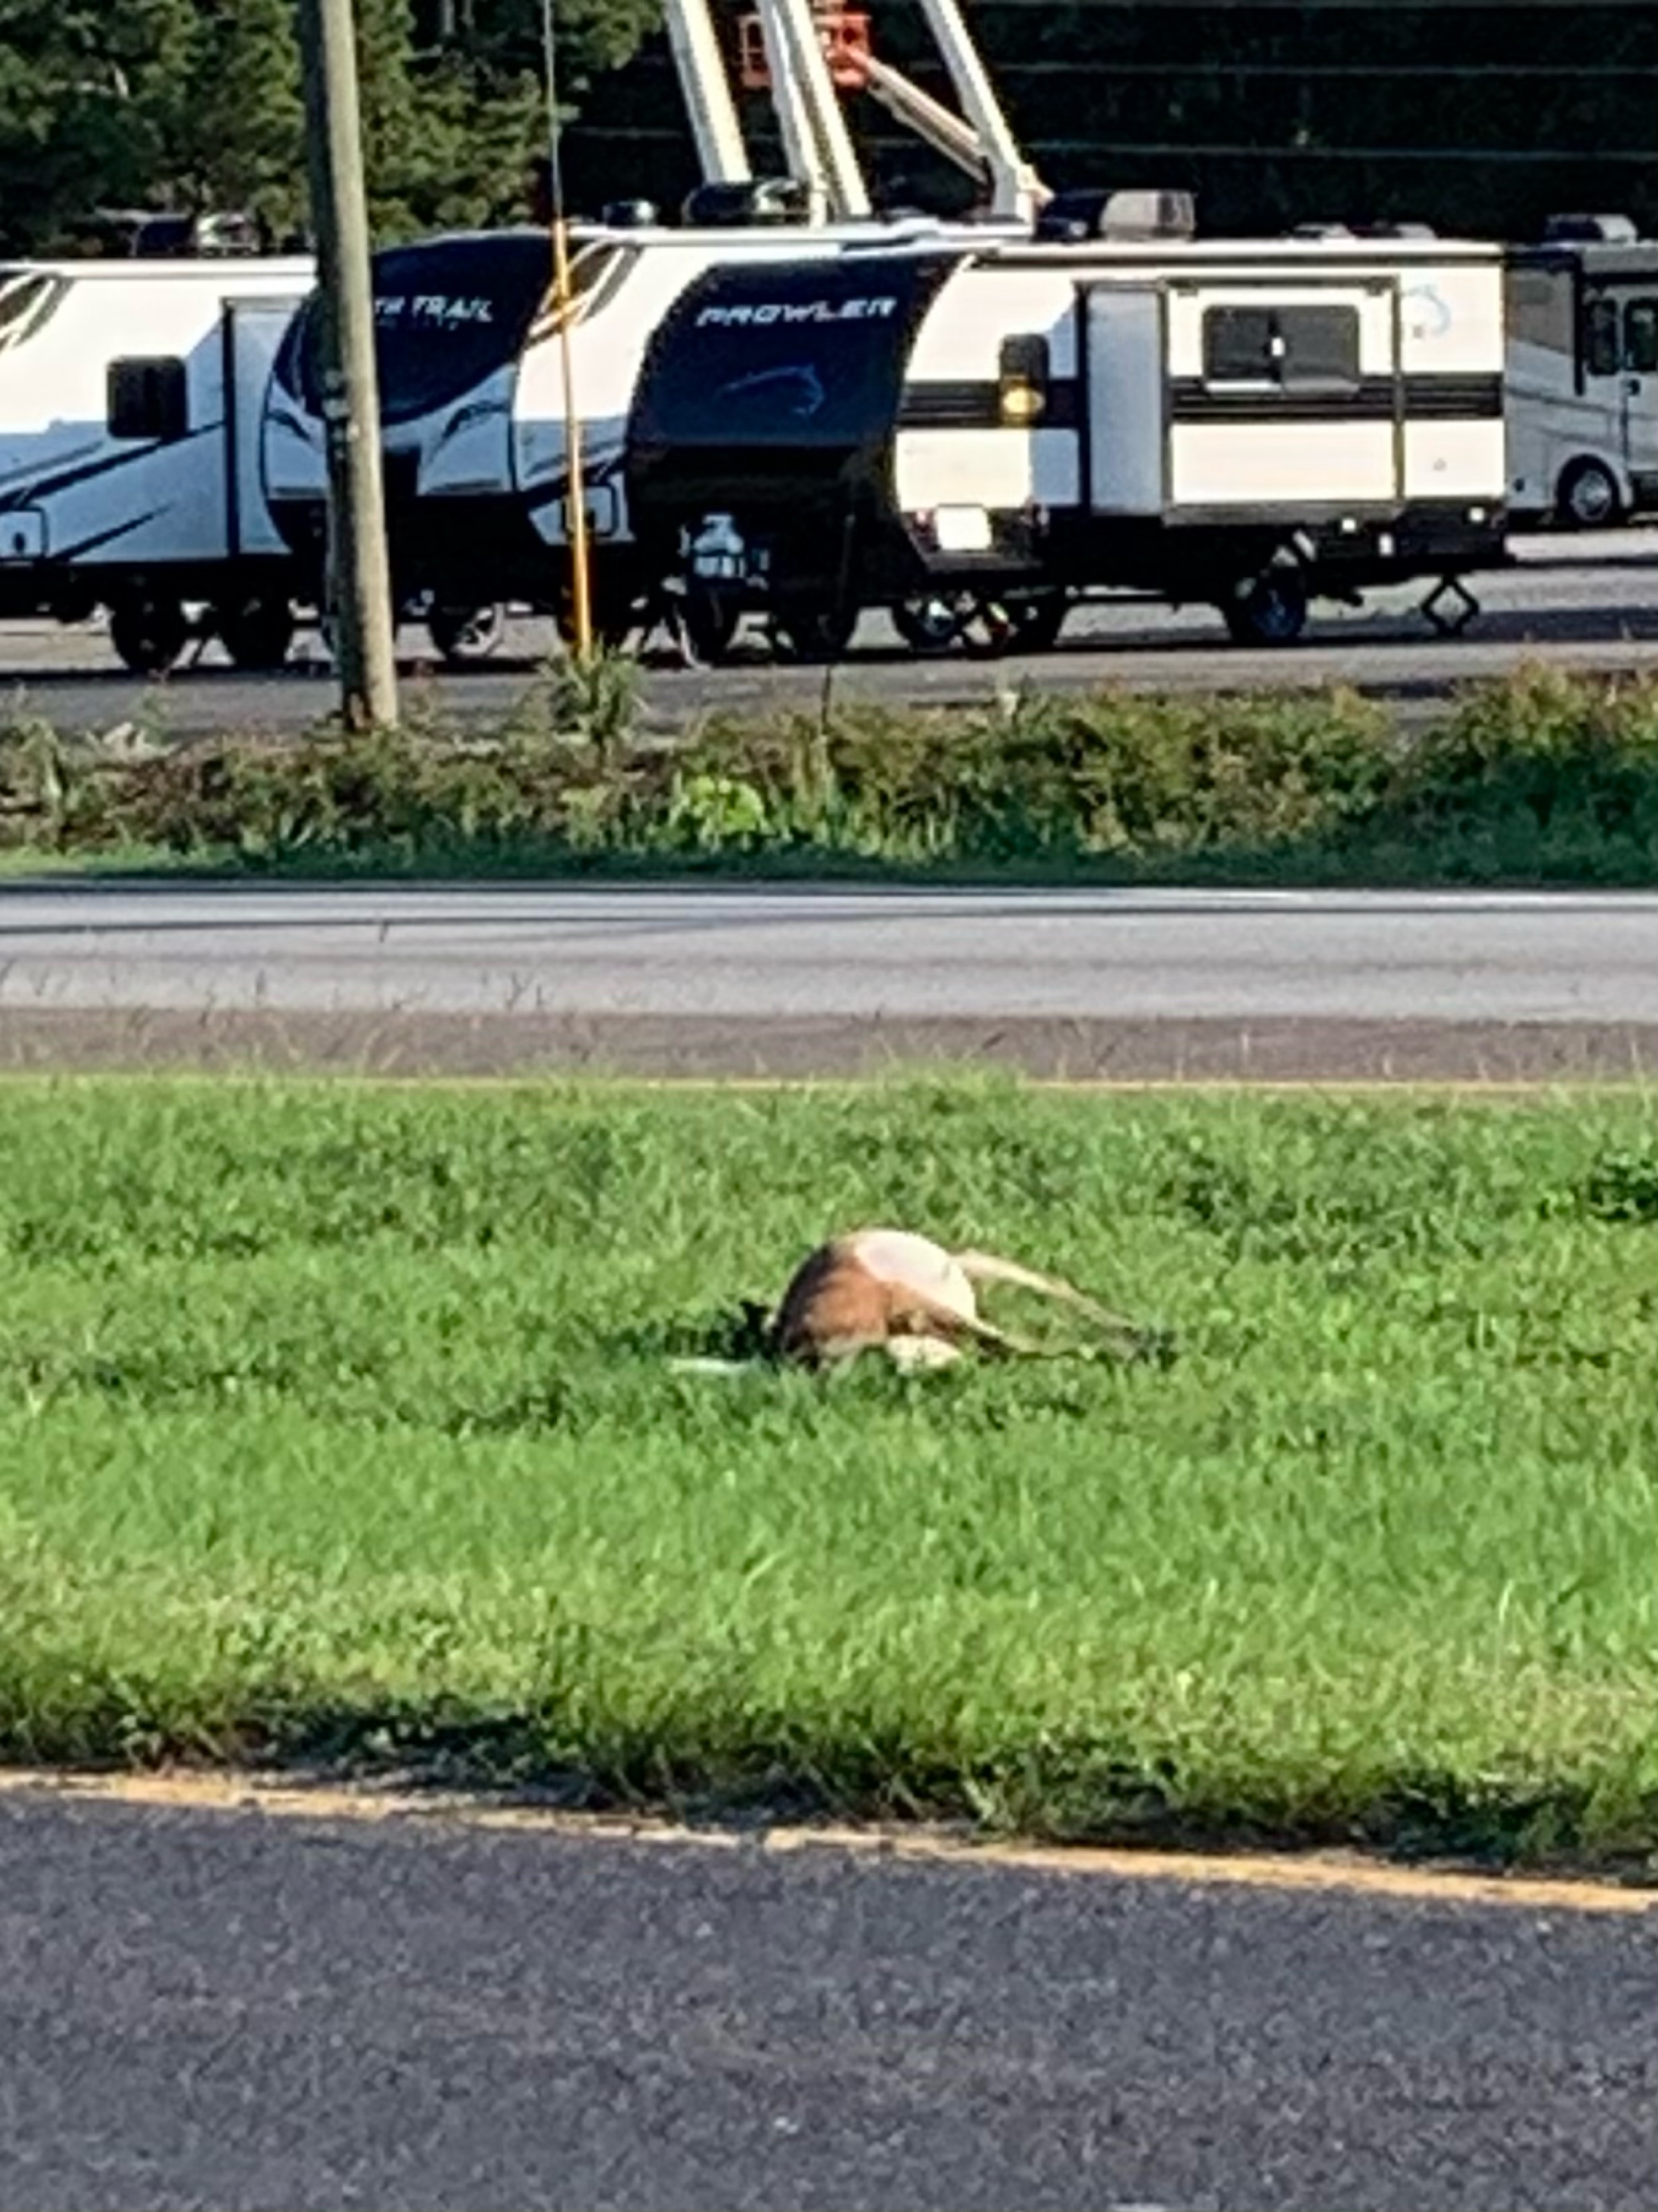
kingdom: Animalia
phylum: Chordata
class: Mammalia
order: Artiodactyla
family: Cervidae
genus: Odocoileus
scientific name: Odocoileus virginianus
